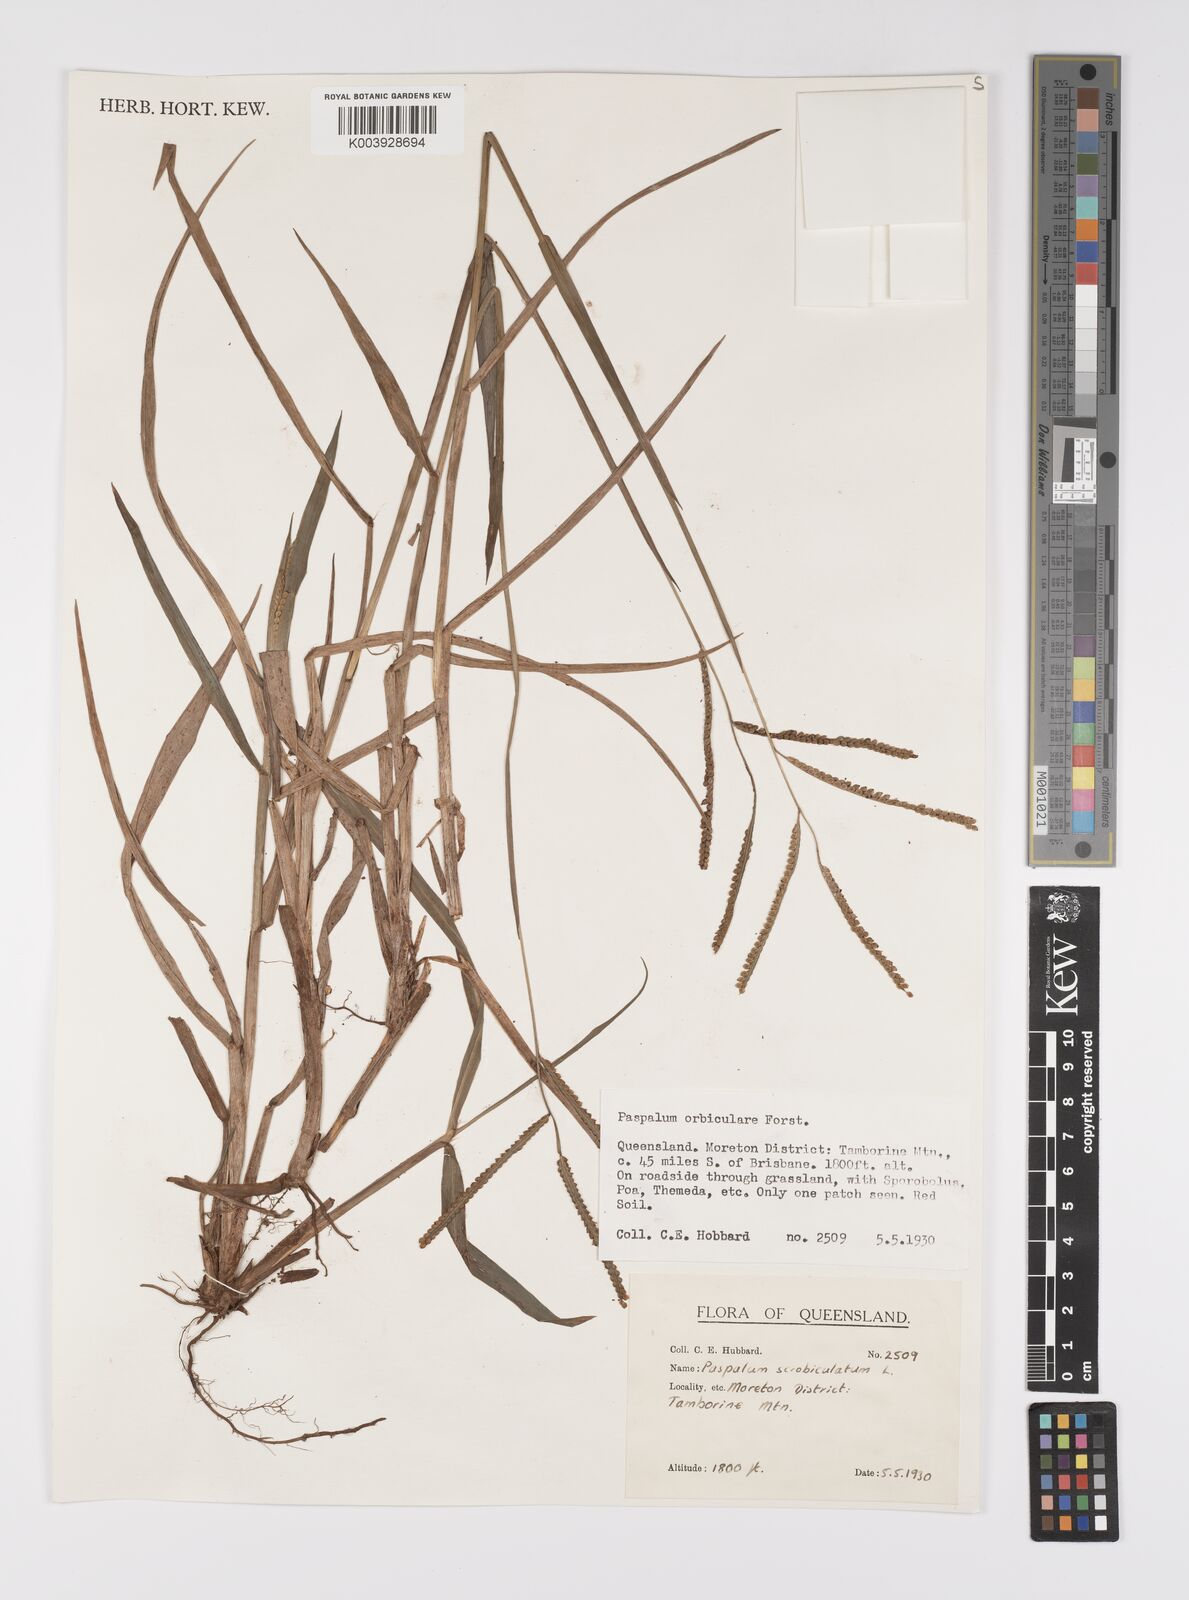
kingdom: Plantae
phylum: Tracheophyta
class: Liliopsida
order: Poales
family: Poaceae
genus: Paspalum
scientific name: Paspalum scrobiculatum
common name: Kodo millet
